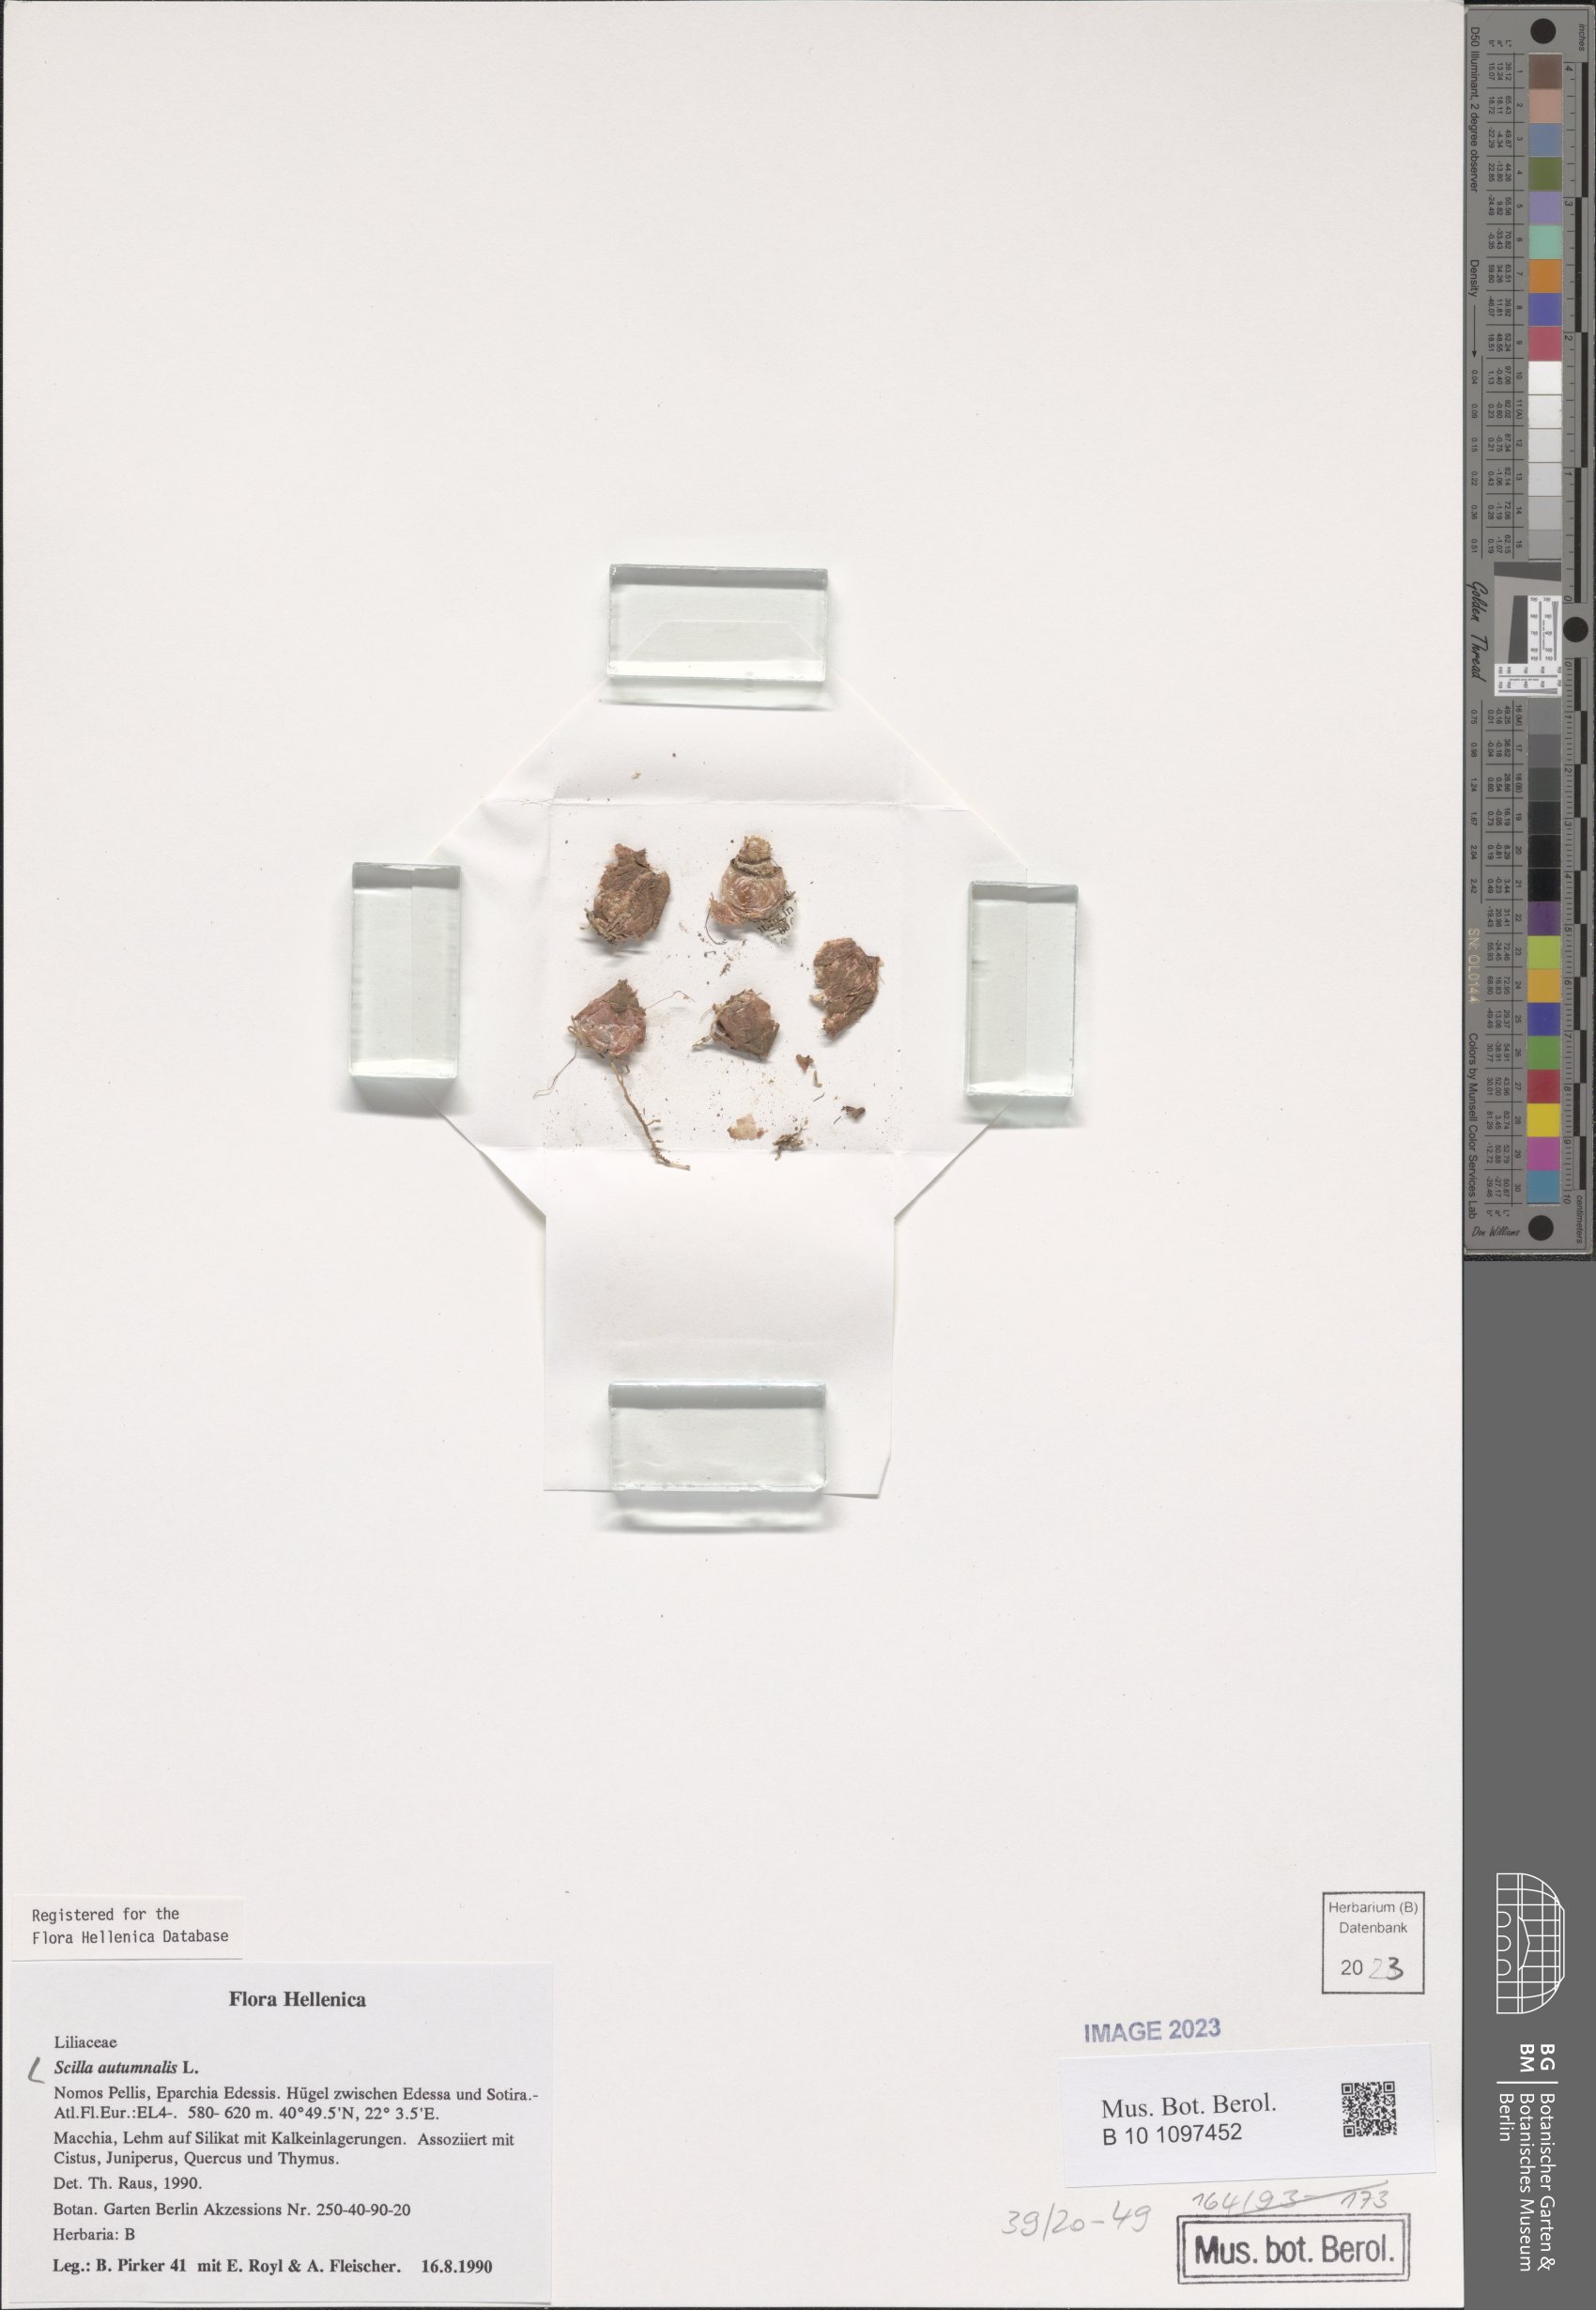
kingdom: Plantae
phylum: Tracheophyta
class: Liliopsida
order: Asparagales
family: Asparagaceae
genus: Prospero
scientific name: Prospero autumnale
